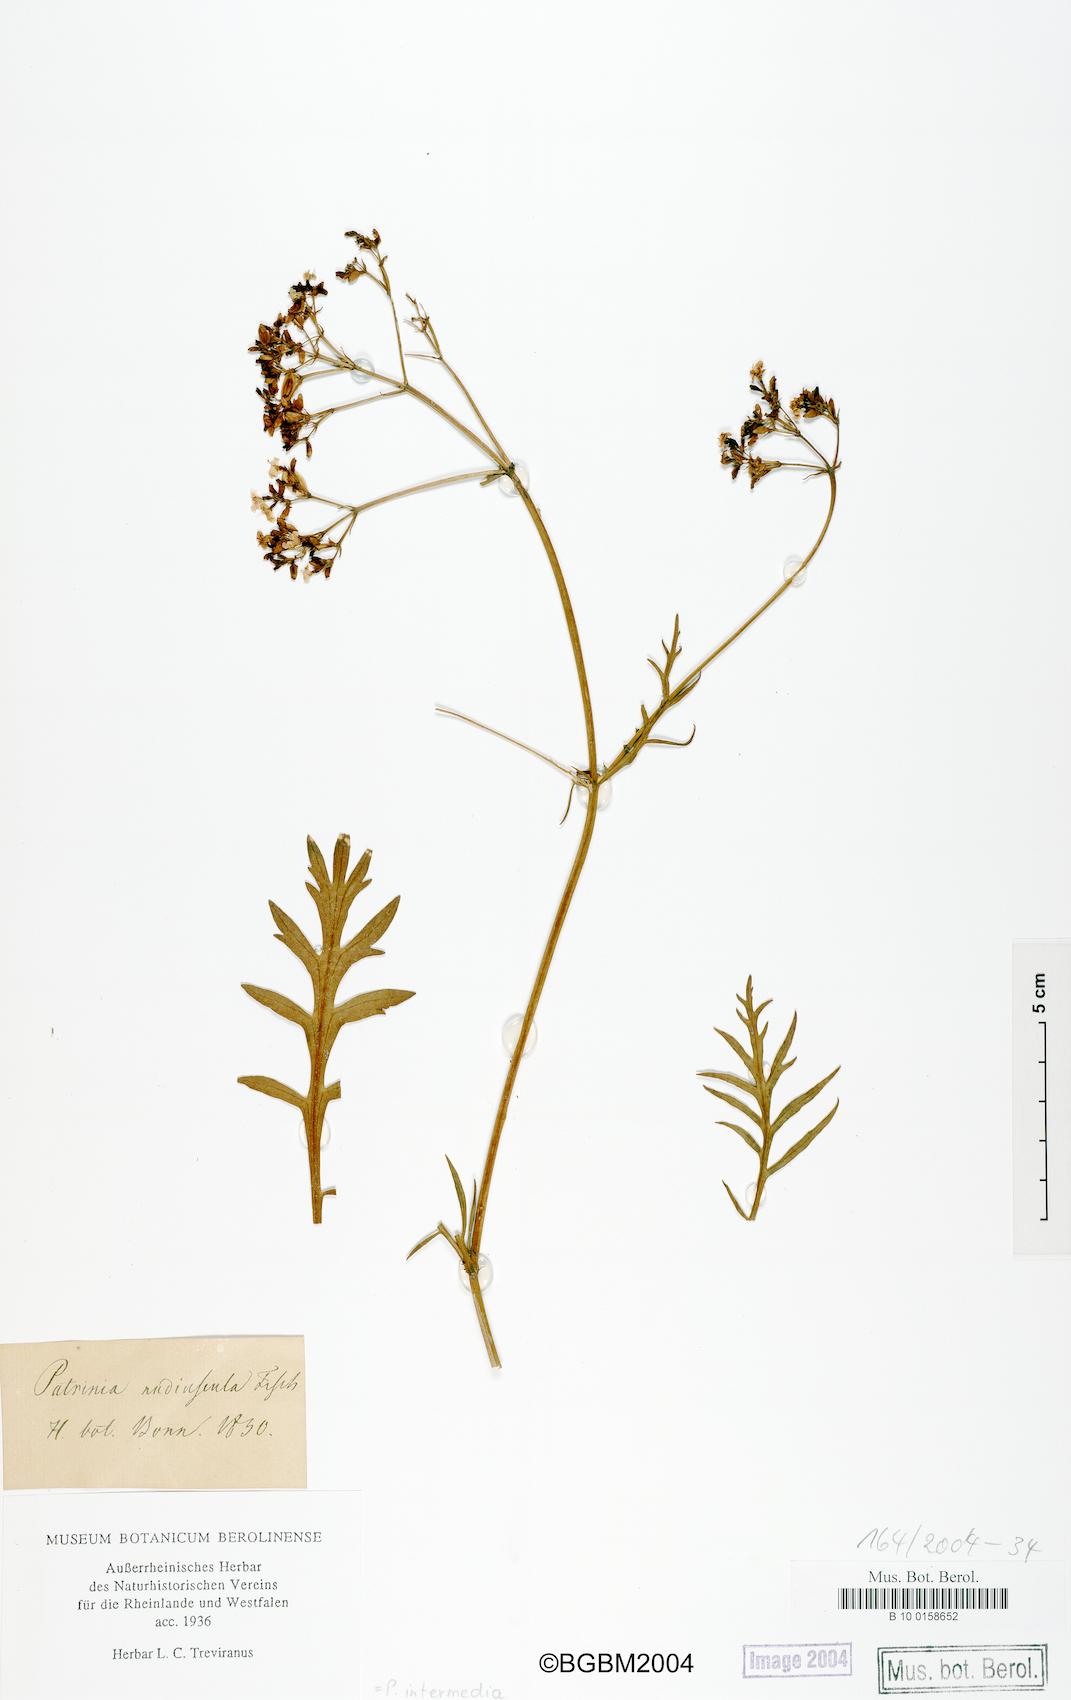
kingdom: Plantae
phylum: Tracheophyta
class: Magnoliopsida
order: Dipsacales
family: Caprifoliaceae
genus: Patrinia
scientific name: Patrinia intermedia
